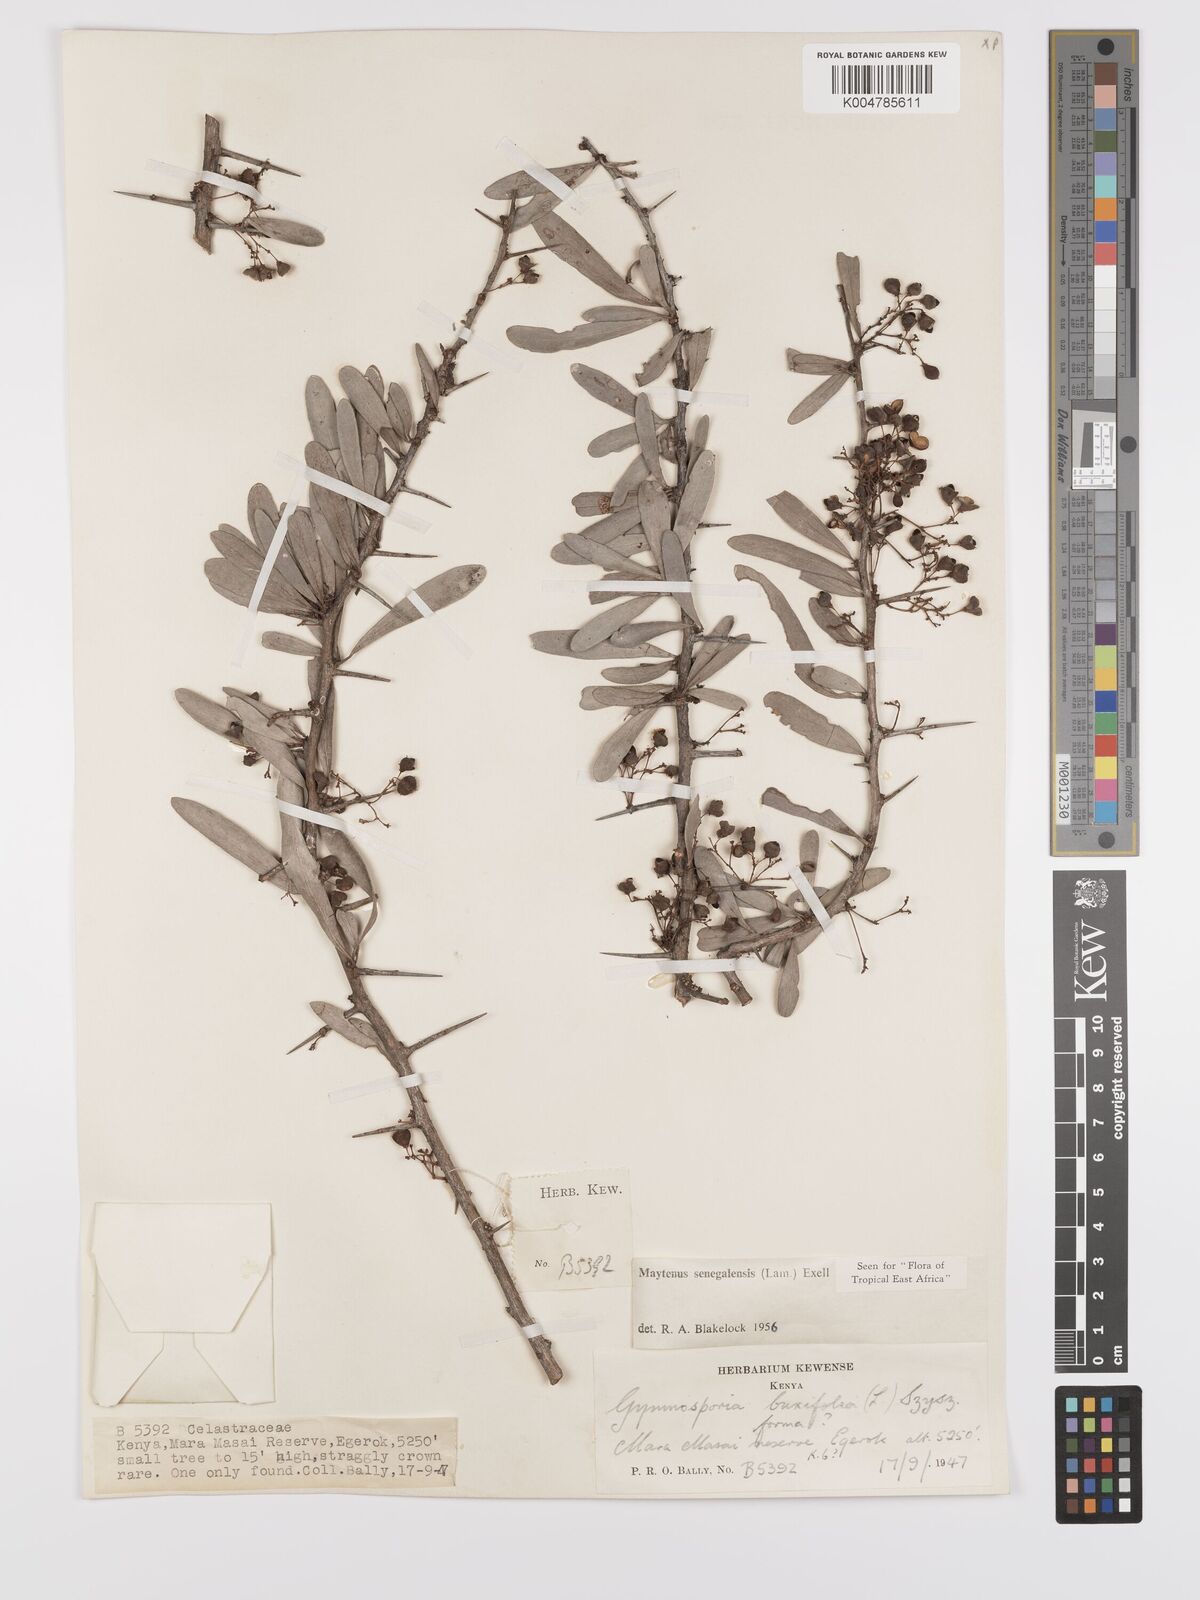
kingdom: Plantae
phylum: Tracheophyta
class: Magnoliopsida
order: Celastrales
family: Celastraceae
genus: Gymnosporia
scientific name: Gymnosporia senegalensis
